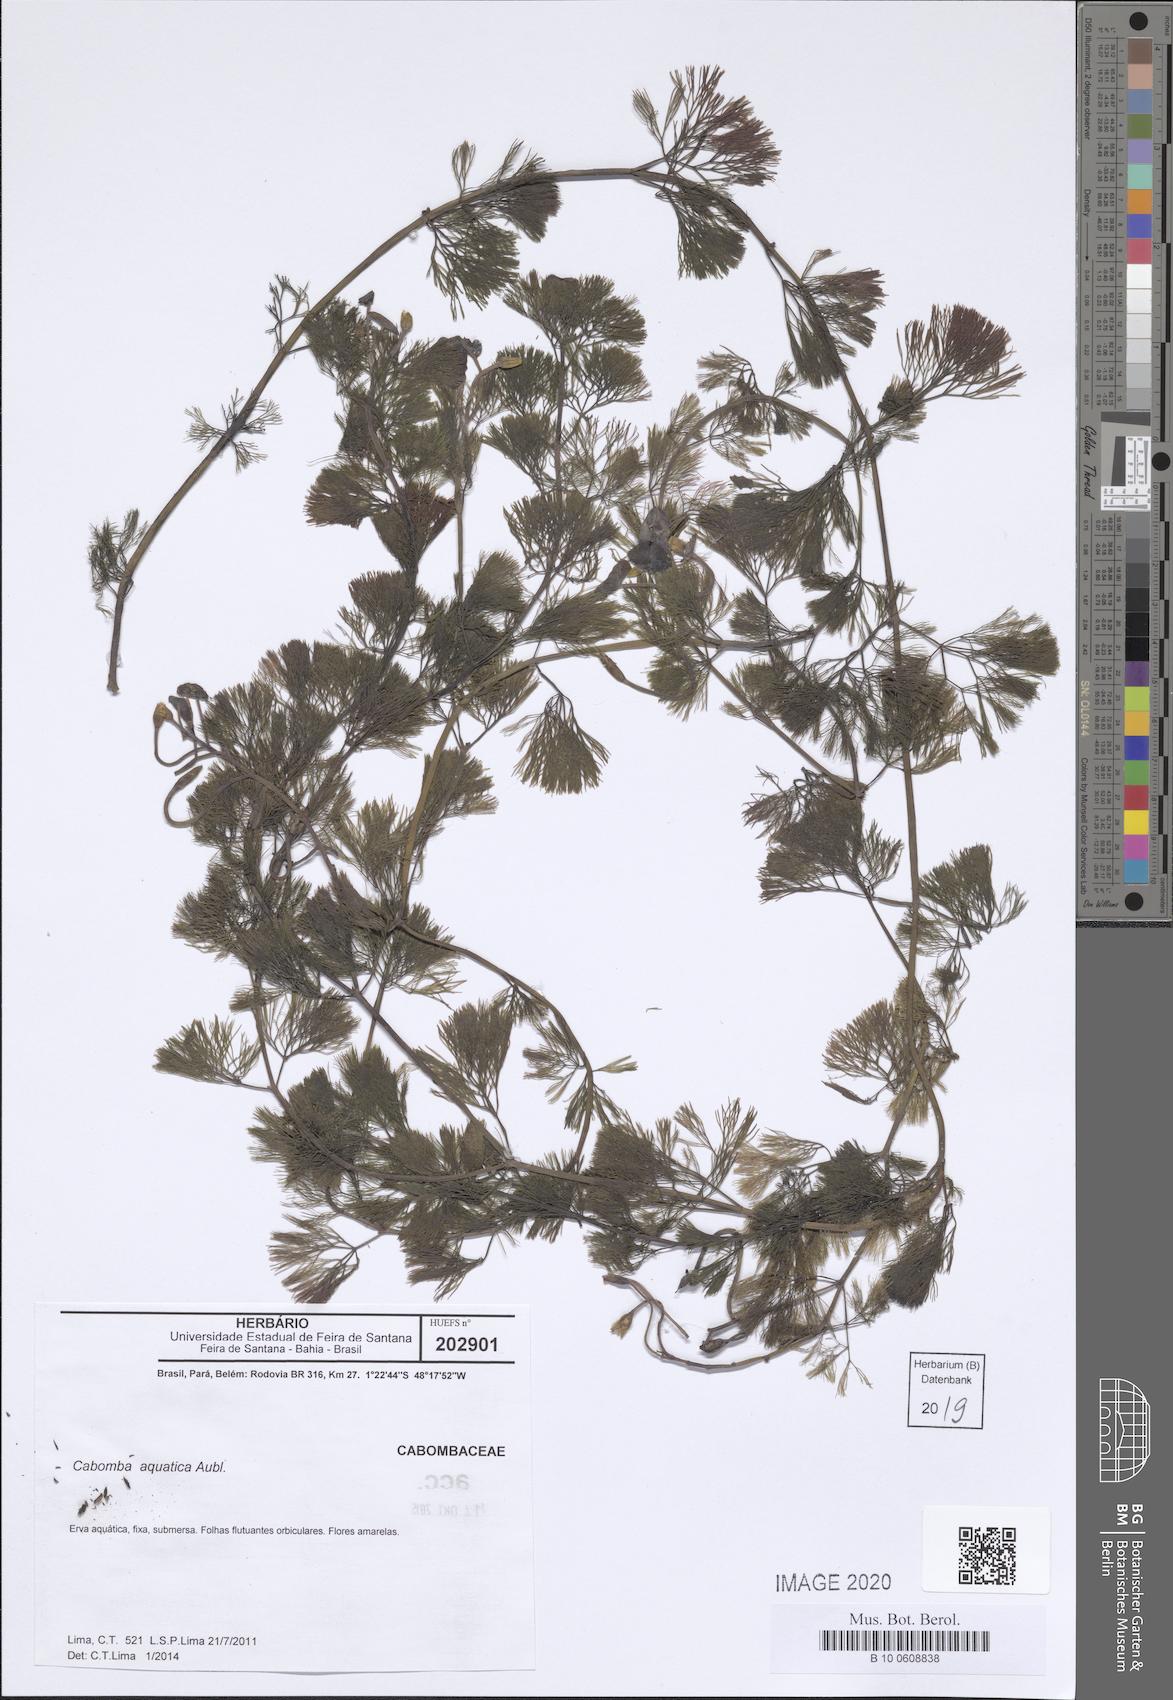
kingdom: Plantae
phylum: Tracheophyta
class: Magnoliopsida
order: Nymphaeales
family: Cabombaceae
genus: Cabomba
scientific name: Cabomba aquatica
